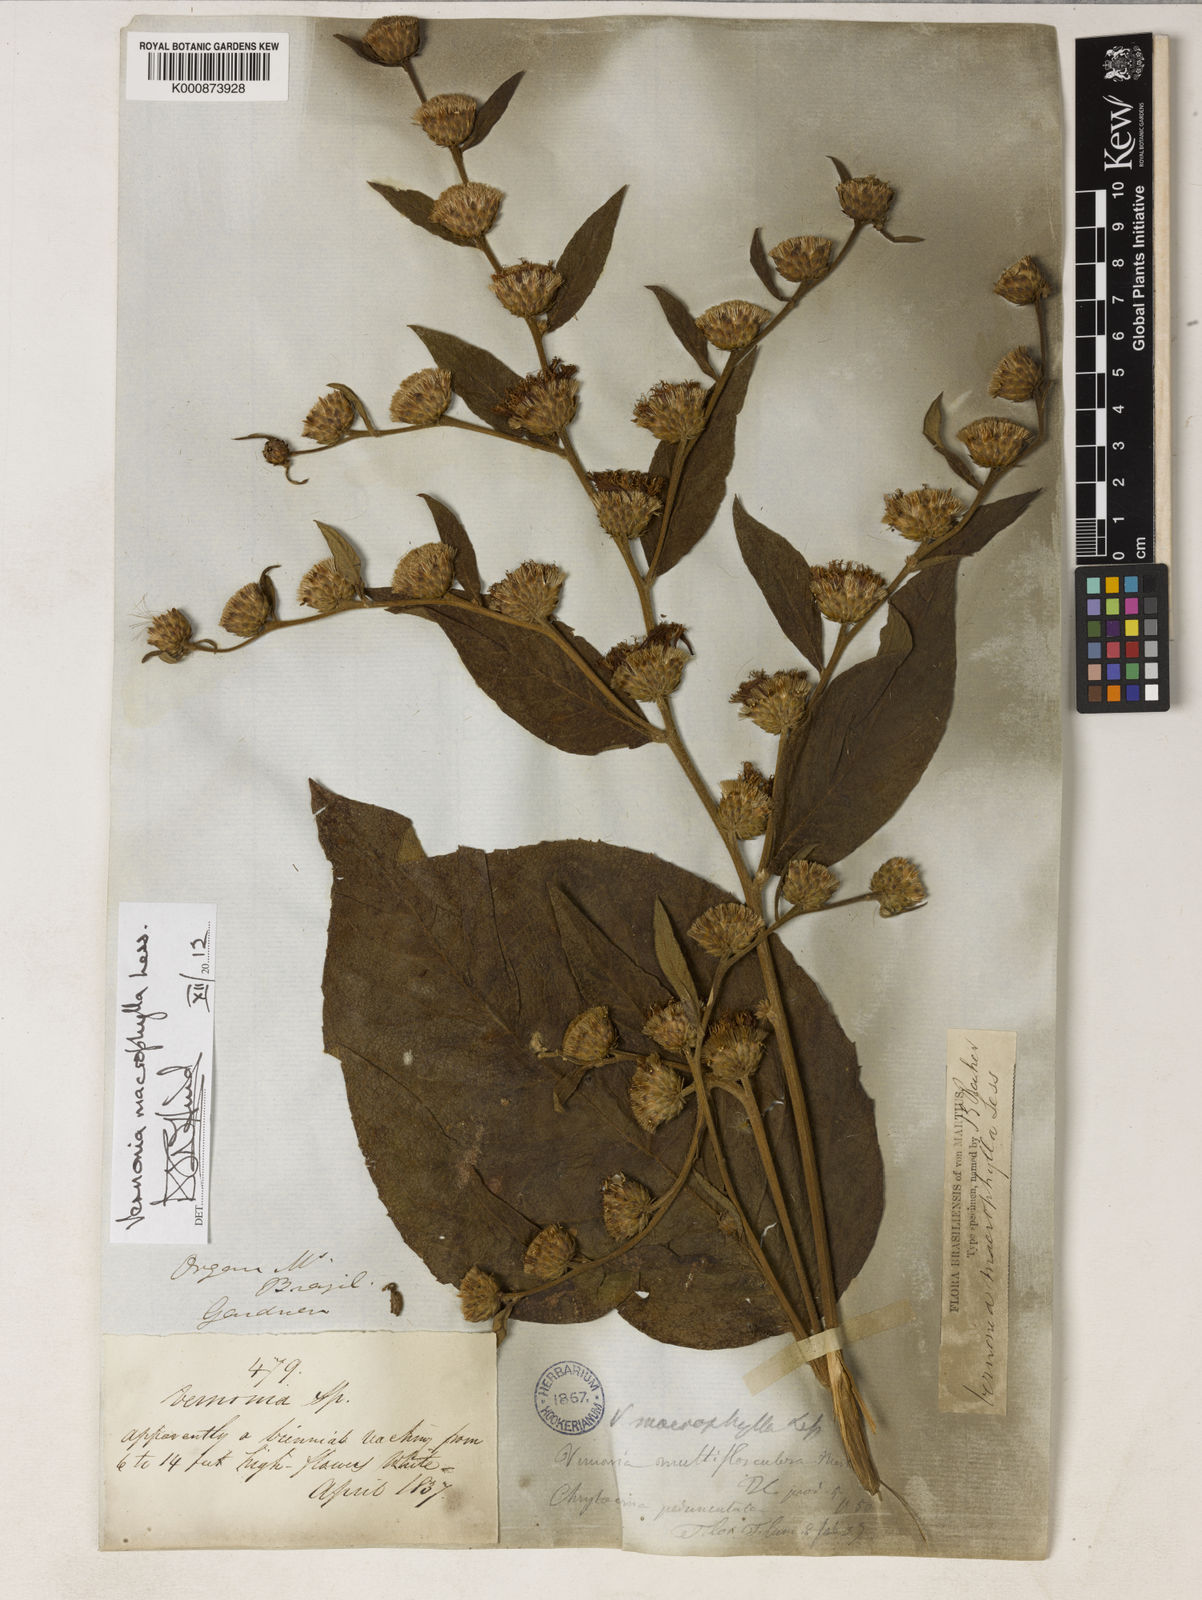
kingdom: Plantae
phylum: Tracheophyta
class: Magnoliopsida
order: Asterales
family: Asteraceae
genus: Lessingianthus
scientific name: Lessingianthus macrophyllus
